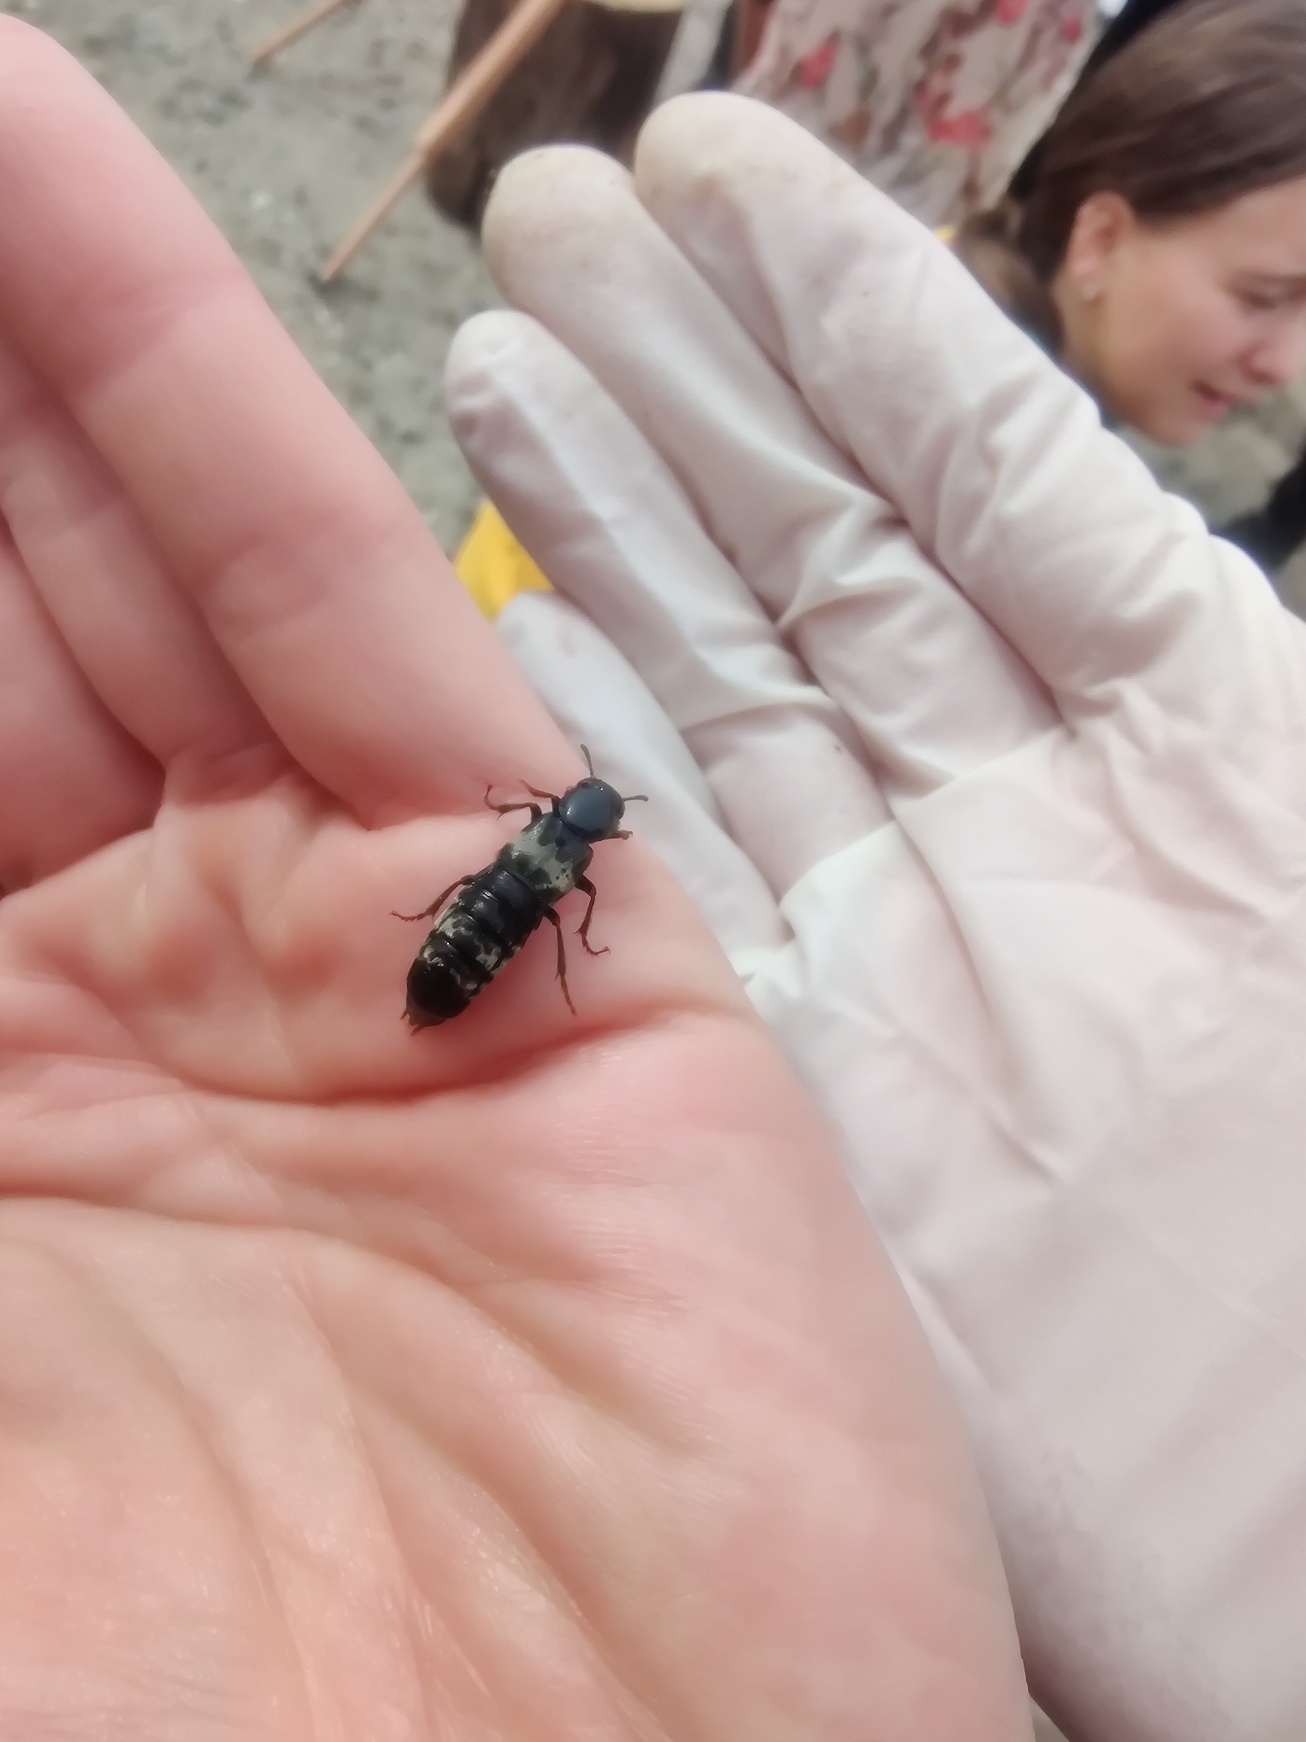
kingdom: Animalia
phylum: Arthropoda
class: Insecta
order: Coleoptera
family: Staphylinidae
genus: Creophilus
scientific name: Creophilus maxillosus
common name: Skrækrovbille
